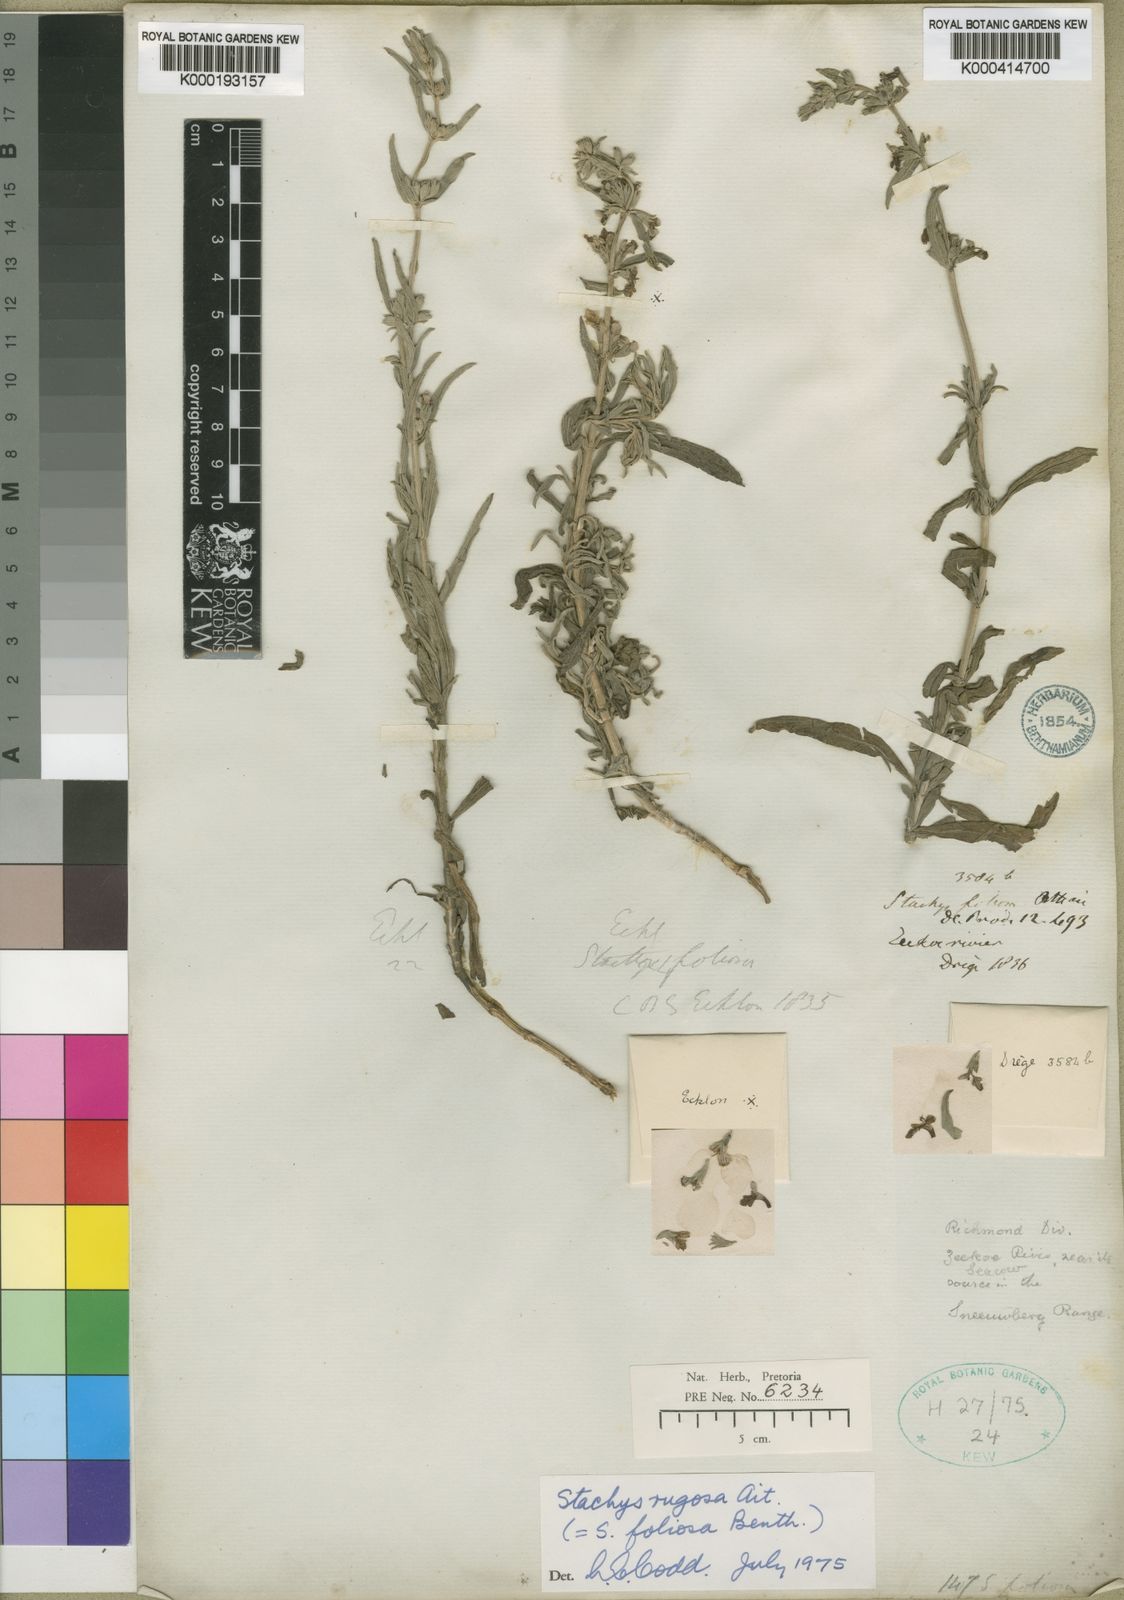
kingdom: Plantae
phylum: Tracheophyta
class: Magnoliopsida
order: Lamiales
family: Lamiaceae
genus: Stachys
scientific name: Stachys rugosa
